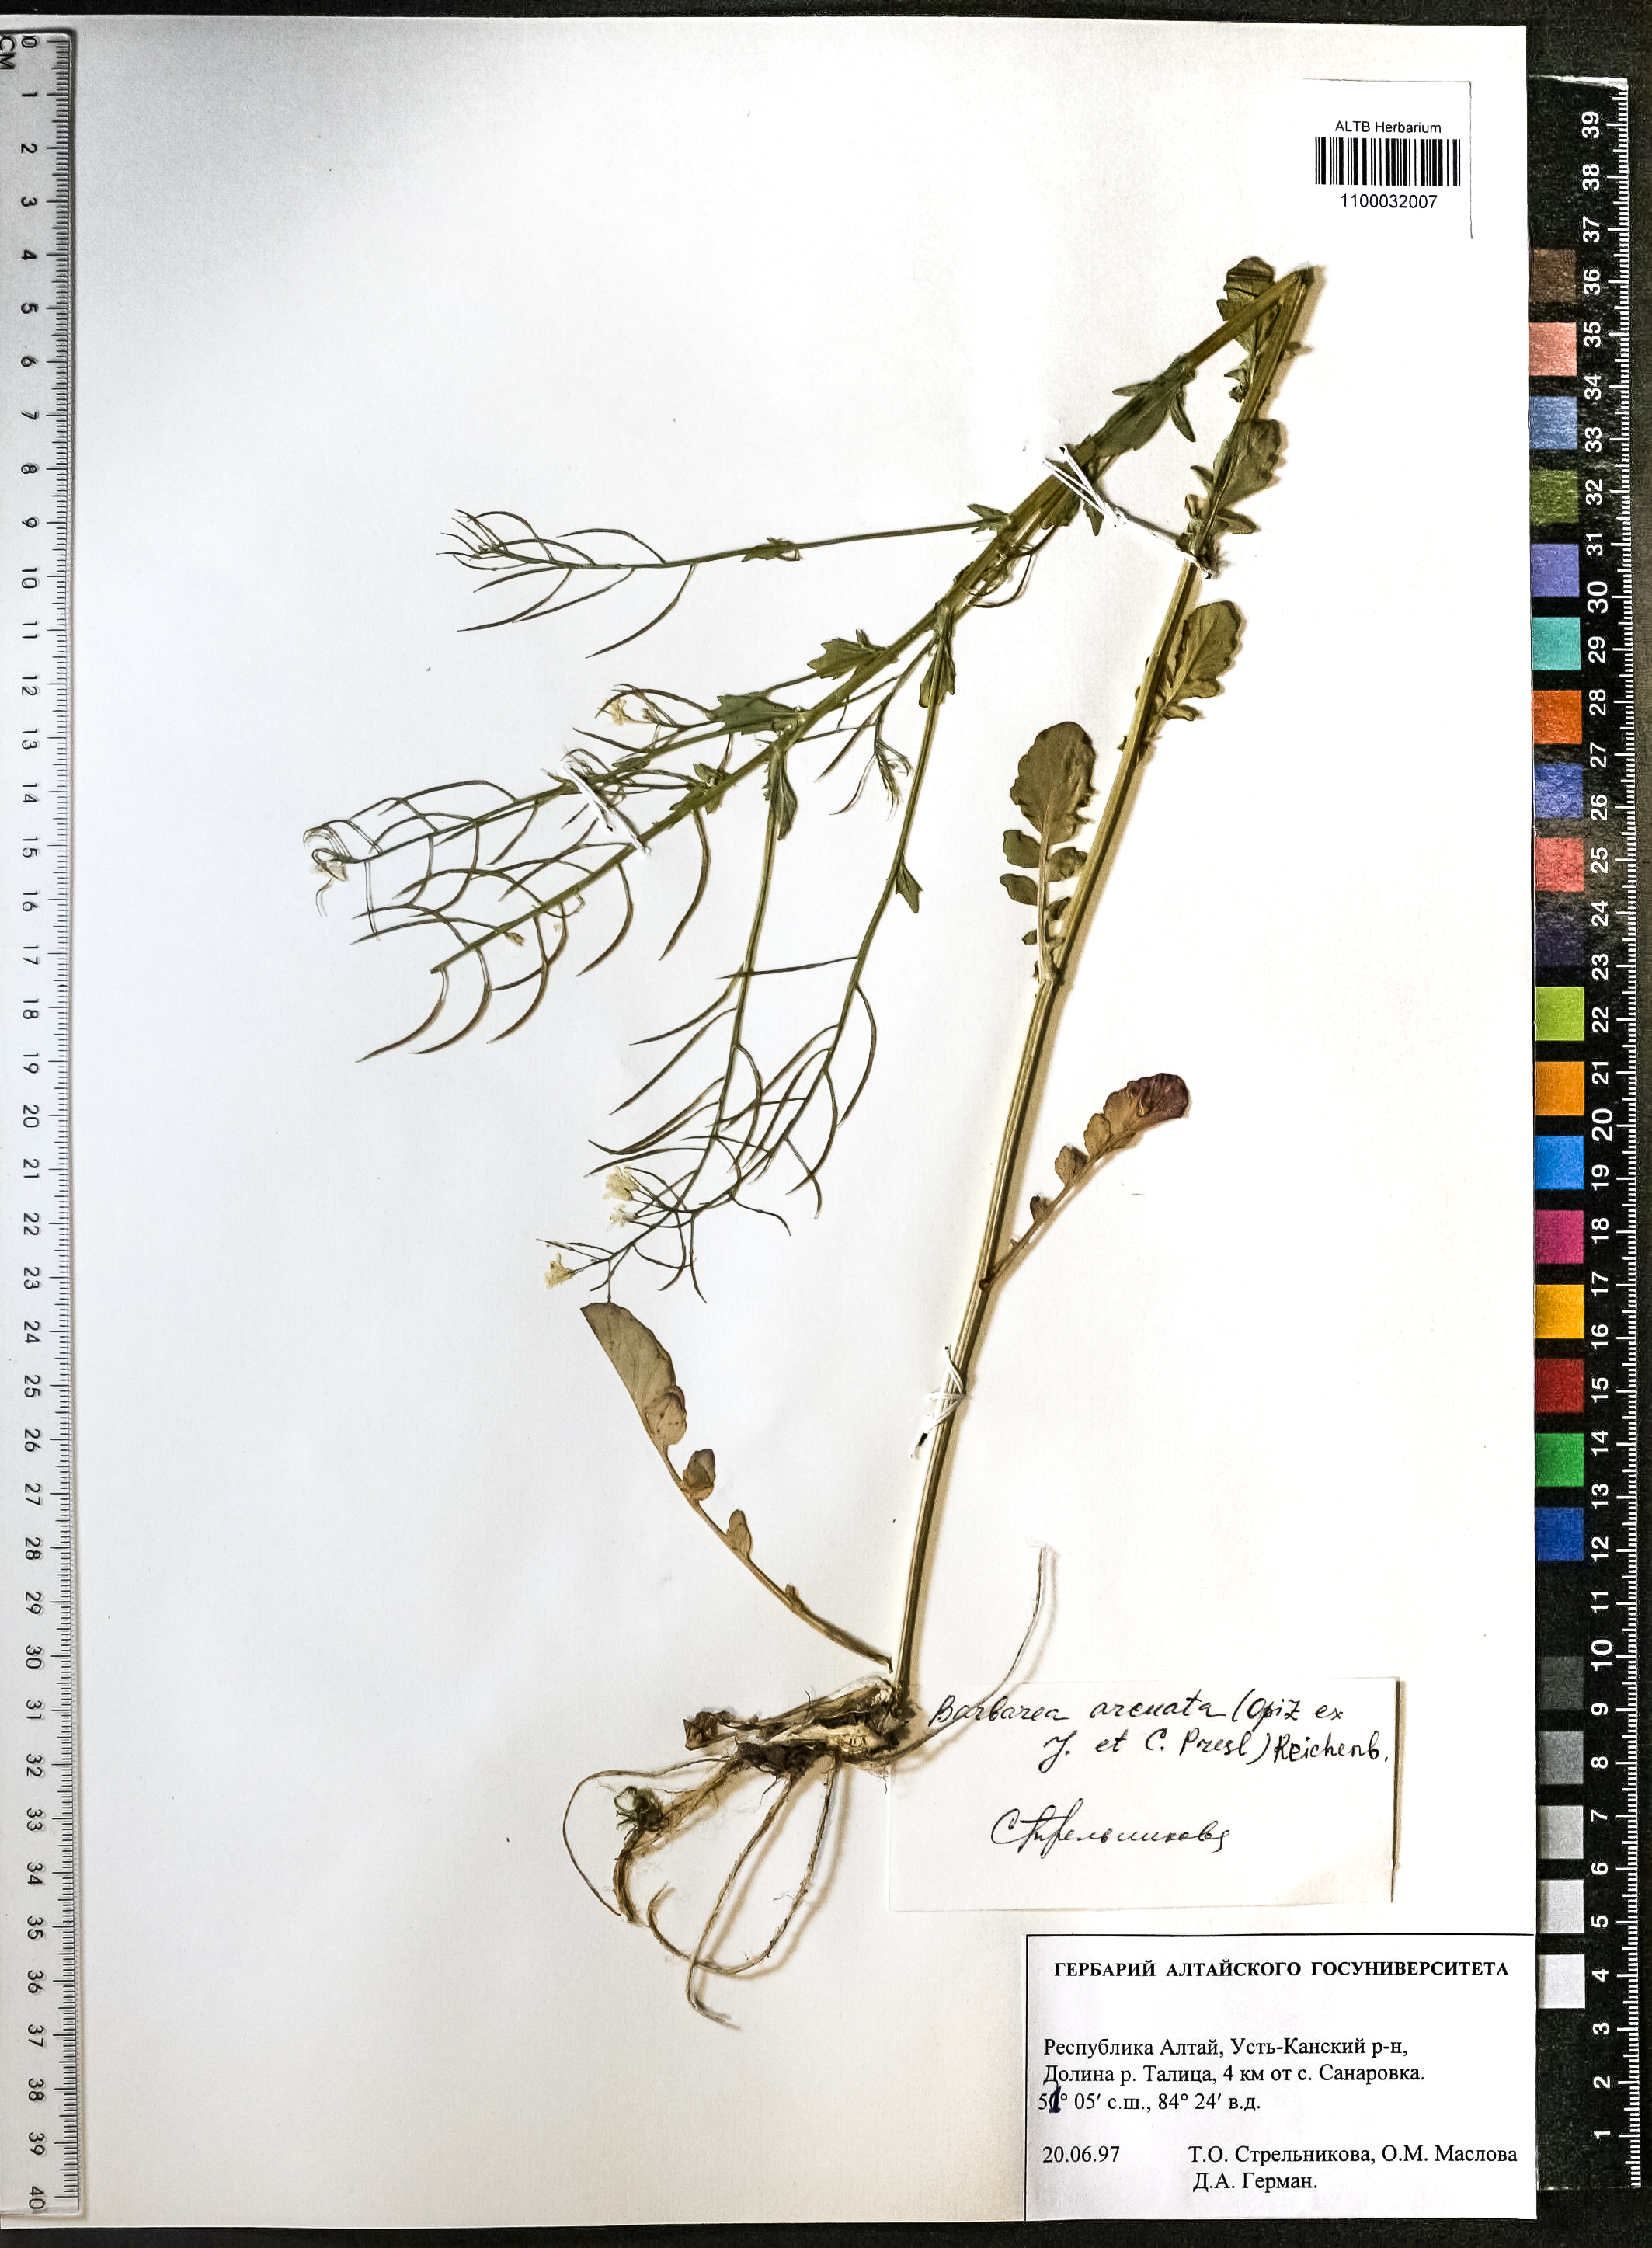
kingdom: Plantae
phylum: Tracheophyta
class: Magnoliopsida
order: Brassicales
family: Brassicaceae
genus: Barbarea
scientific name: Barbarea vulgaris
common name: Cressy-greens
